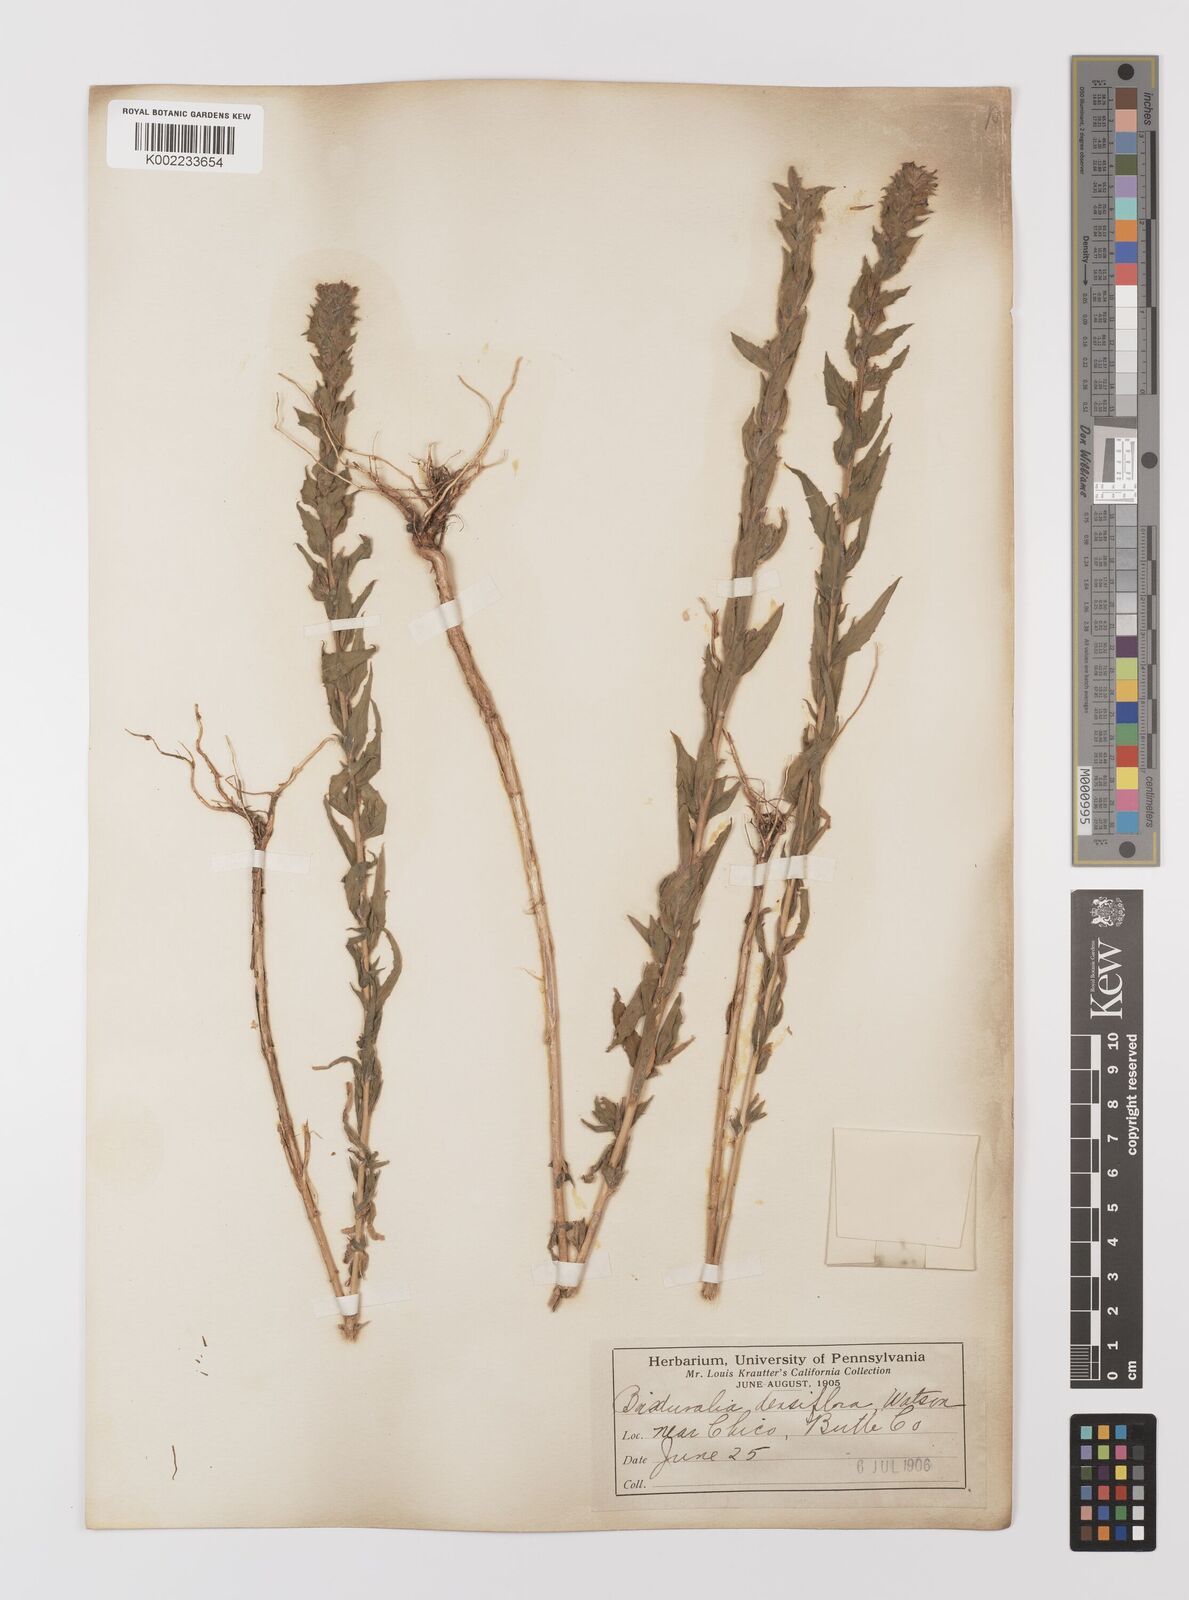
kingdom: Plantae
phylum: Tracheophyta
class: Magnoliopsida
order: Myrtales
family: Onagraceae
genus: Epilobium
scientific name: Epilobium densiflorum
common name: Dense spike-primrose
